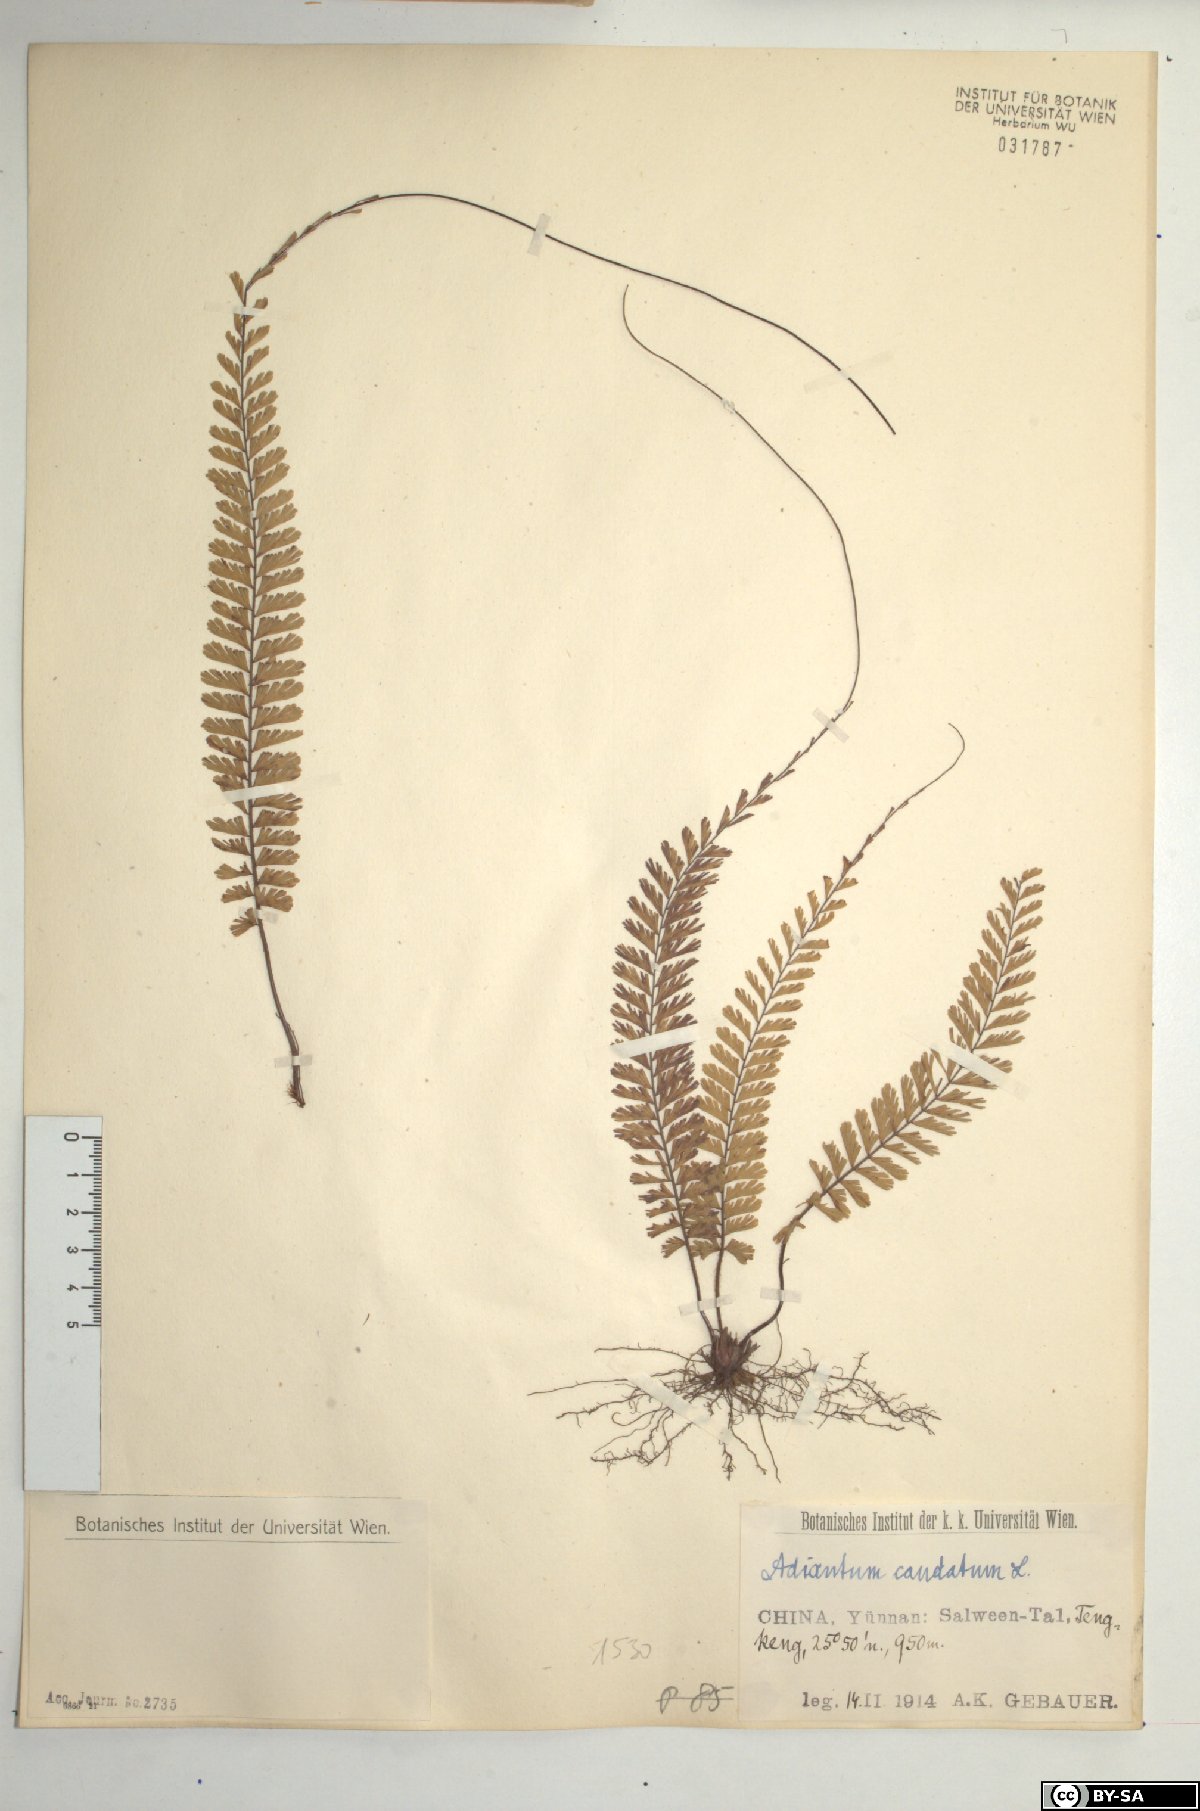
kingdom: Plantae
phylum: Tracheophyta
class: Polypodiopsida
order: Polypodiales
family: Pteridaceae
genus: Adiantum
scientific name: Adiantum caudatum
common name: Tailed maidenhair
